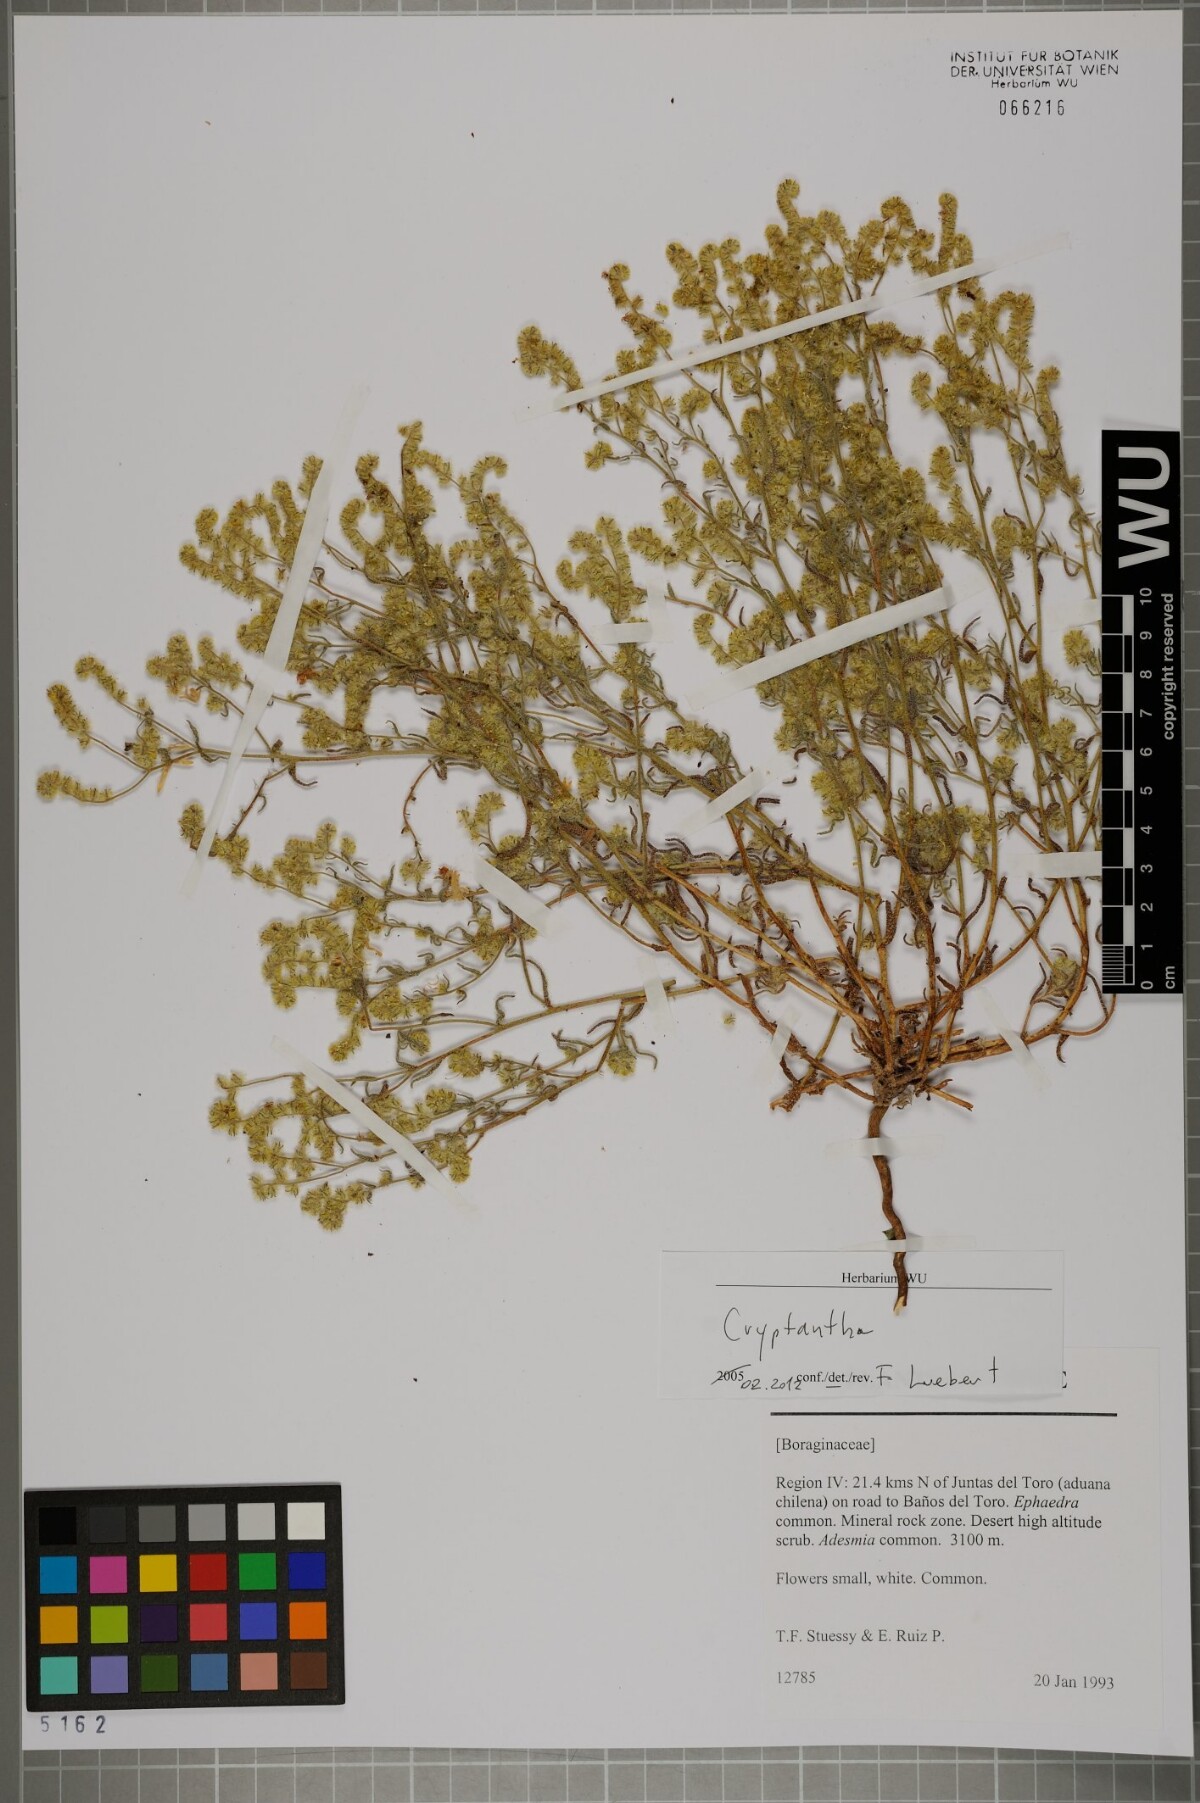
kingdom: Plantae
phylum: Tracheophyta
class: Magnoliopsida
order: Boraginales
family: Boraginaceae
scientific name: Boraginaceae
